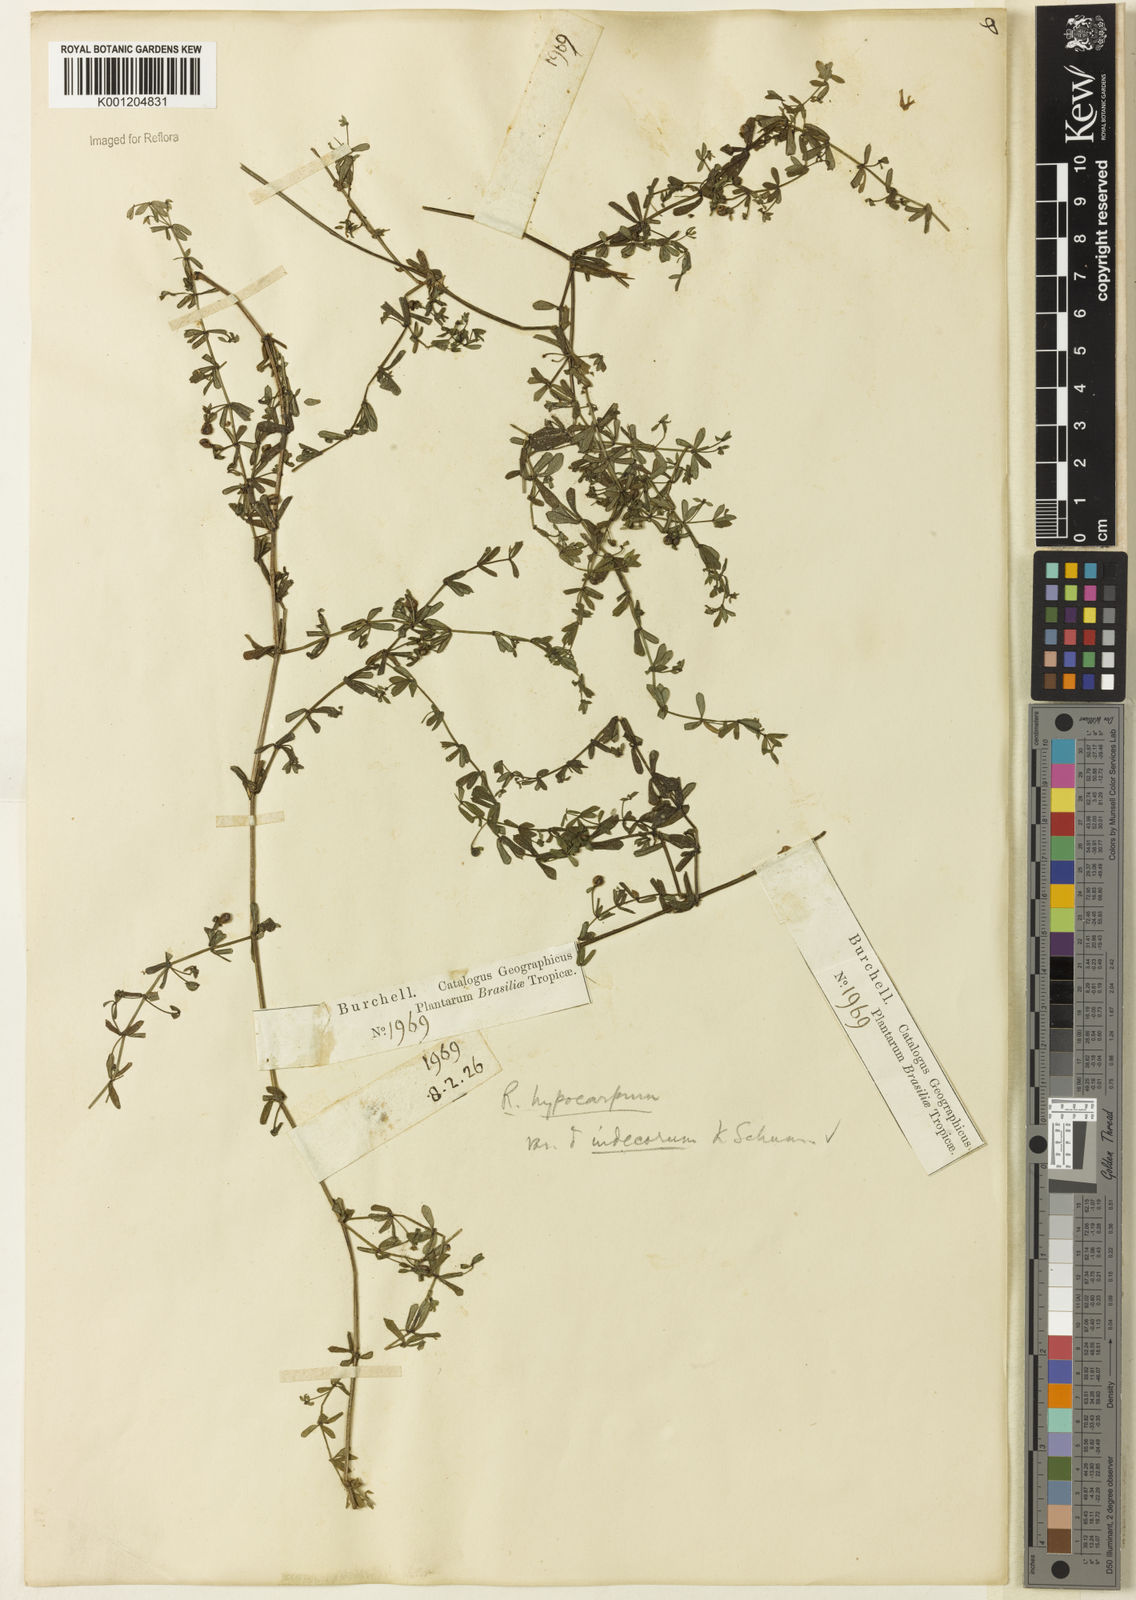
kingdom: Plantae
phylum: Tracheophyta
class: Magnoliopsida
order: Gentianales
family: Rubiaceae
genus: Galium
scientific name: Galium hypocarpium
